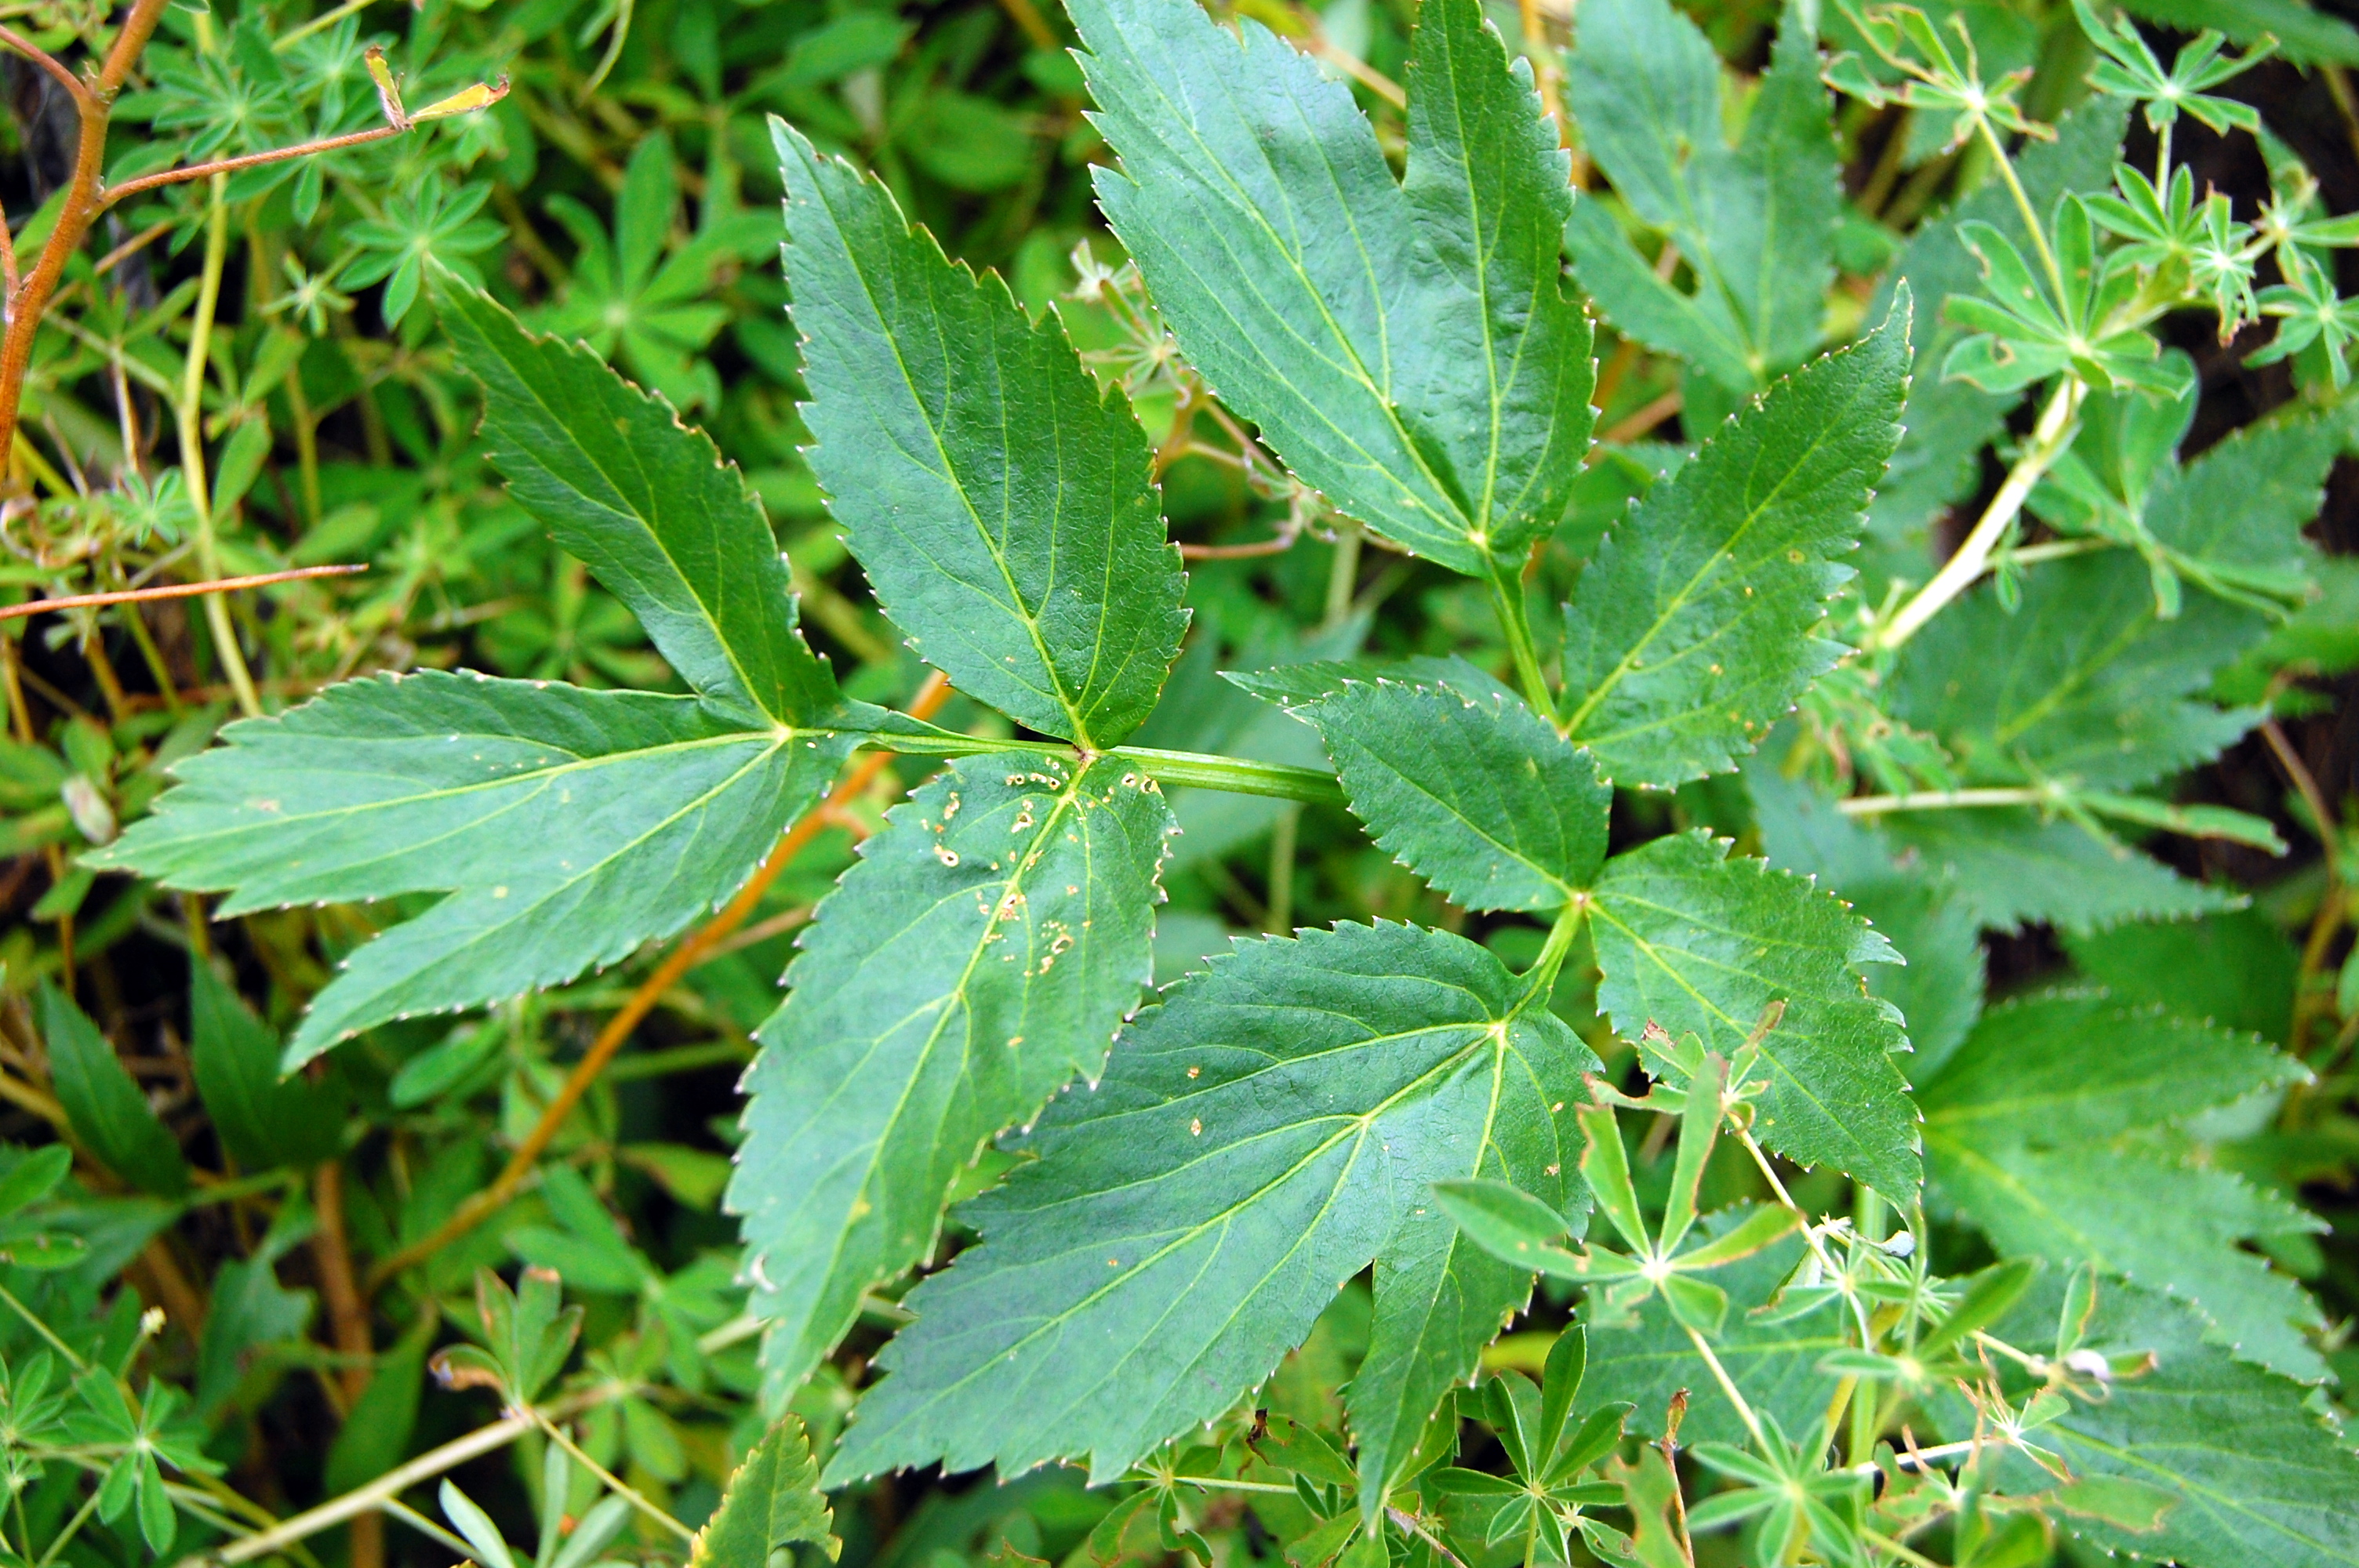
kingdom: Plantae
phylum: Tracheophyta
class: Magnoliopsida
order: Apiales
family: Apiaceae
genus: Angelica
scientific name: Angelica archangelica
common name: Garden angelica
